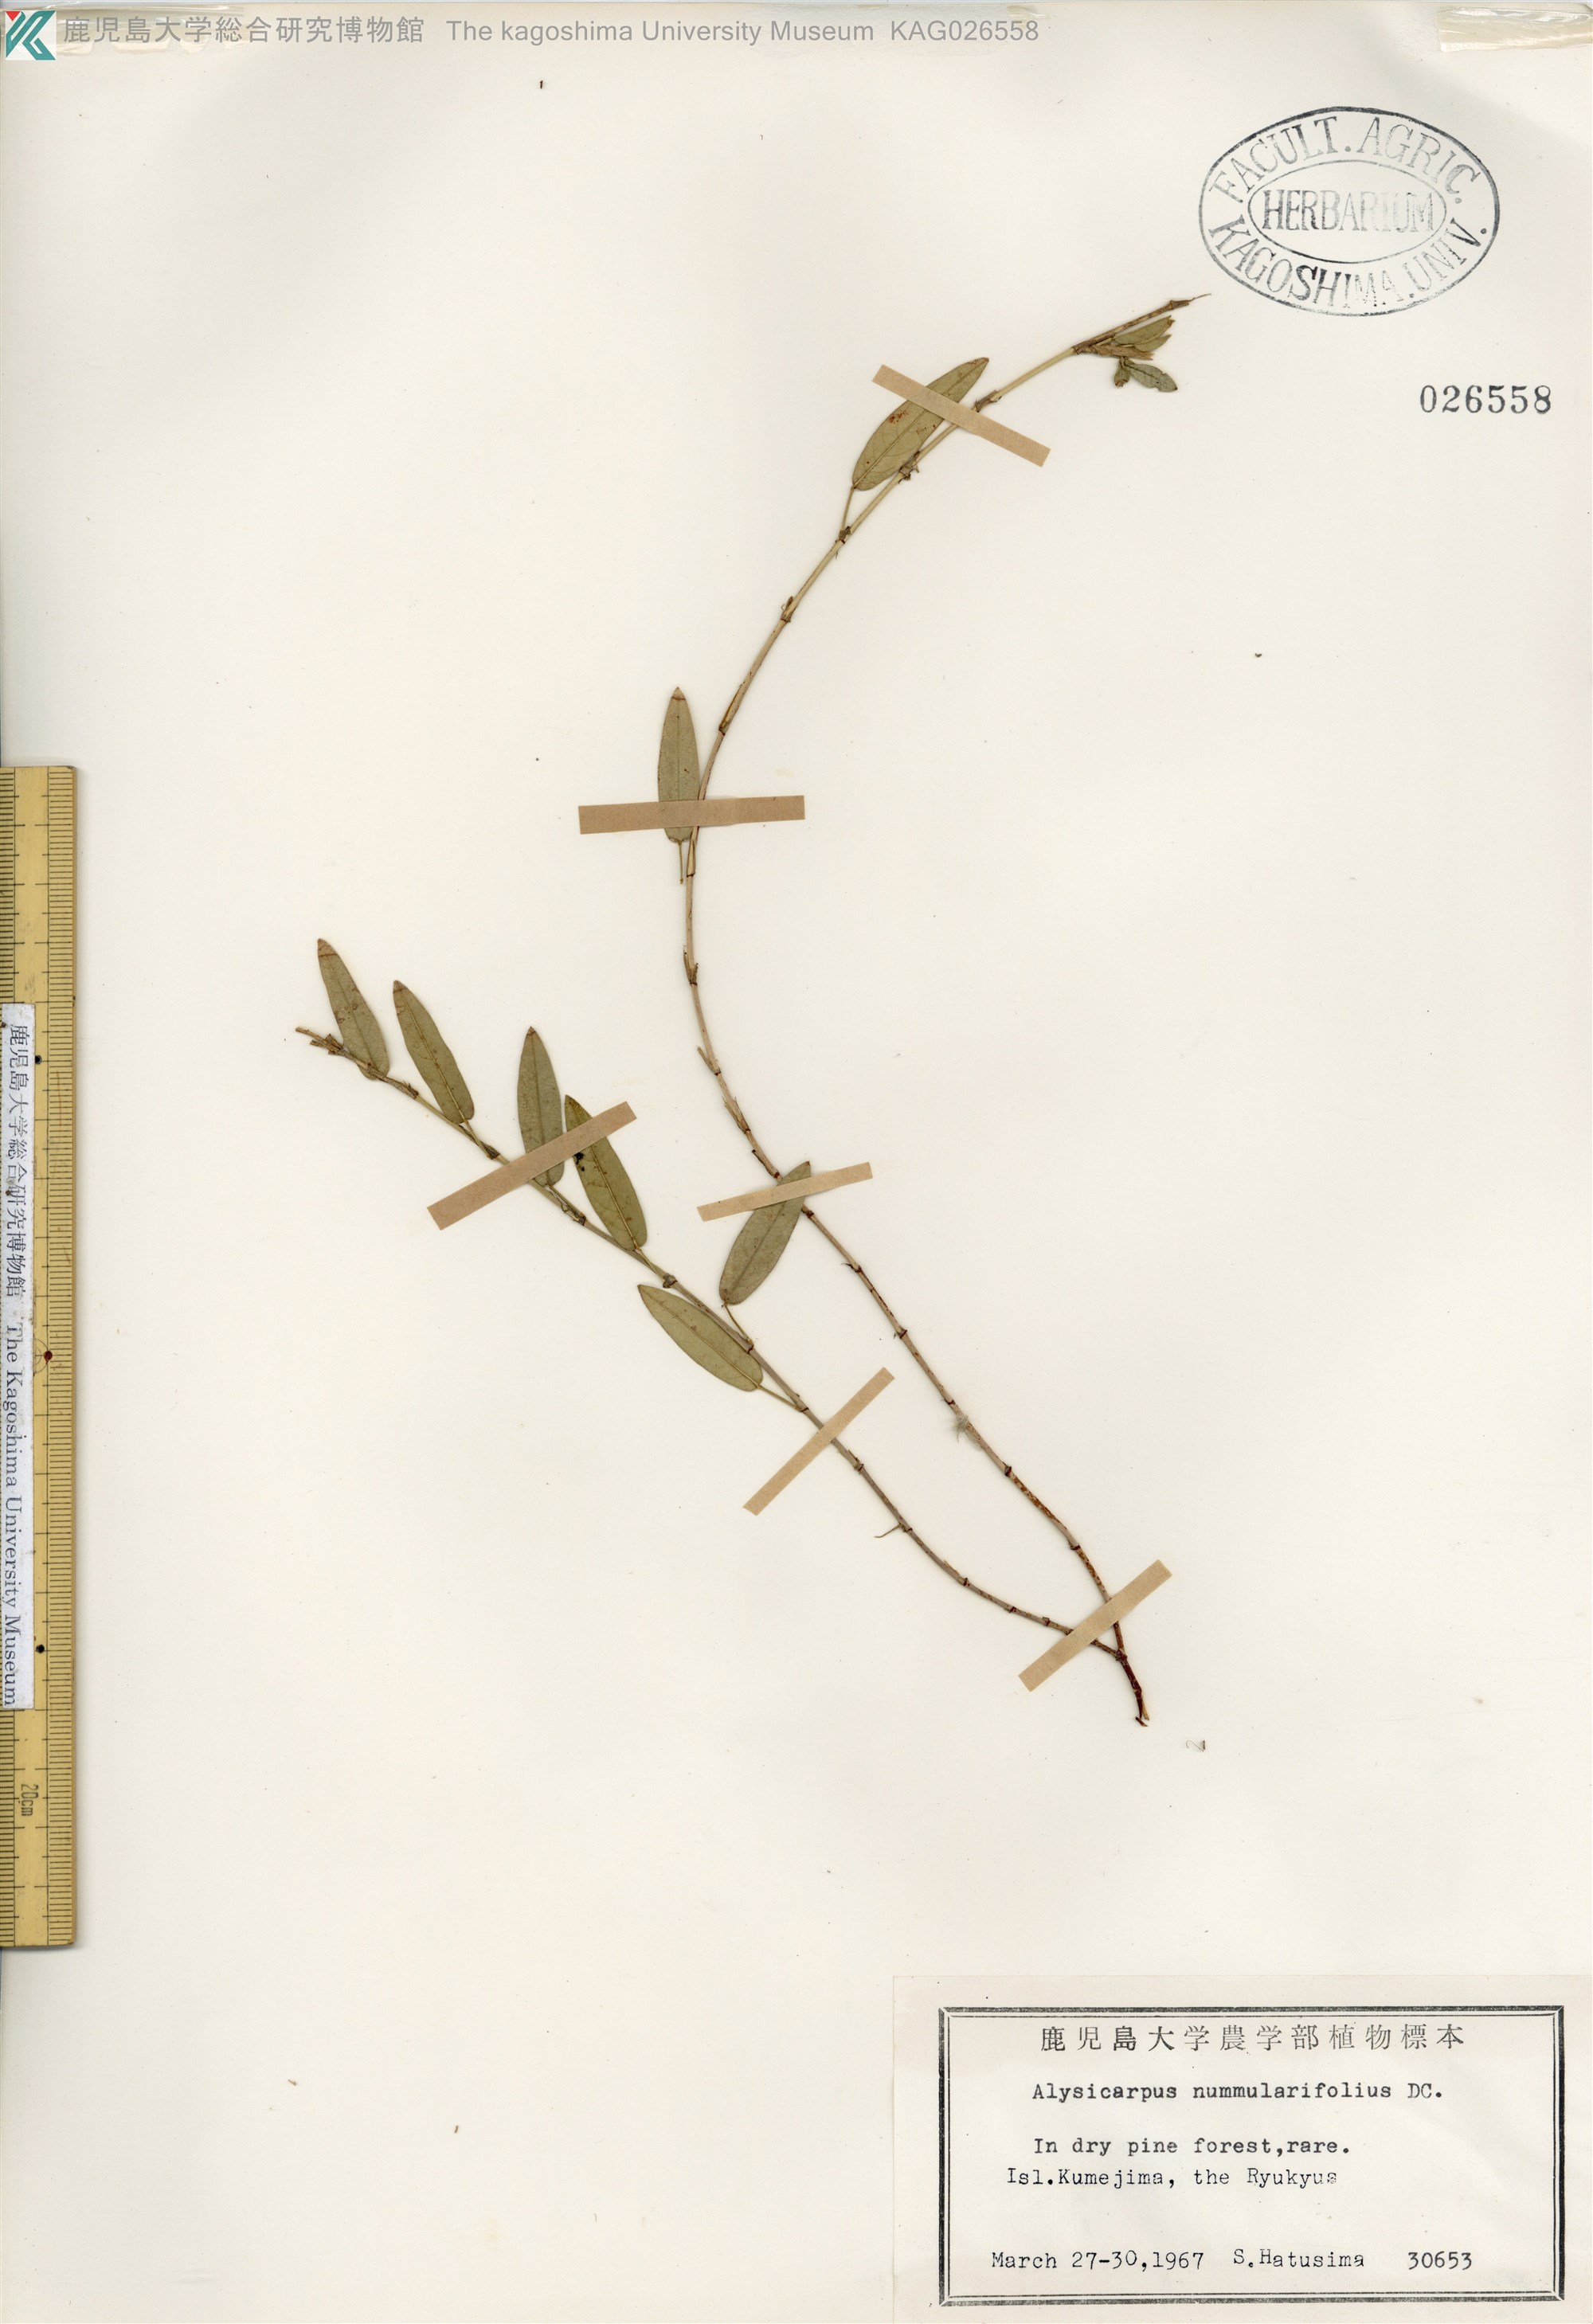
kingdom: Plantae
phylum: Tracheophyta
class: Magnoliopsida
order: Fabales
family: Fabaceae
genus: Alysicarpus
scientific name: Alysicarpus vaginalis
